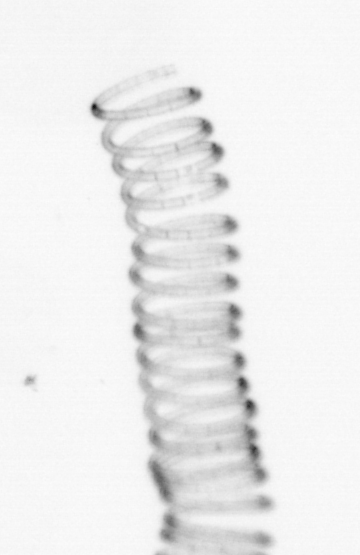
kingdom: Chromista
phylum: Ochrophyta
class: Bacillariophyceae
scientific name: Bacillariophyceae
